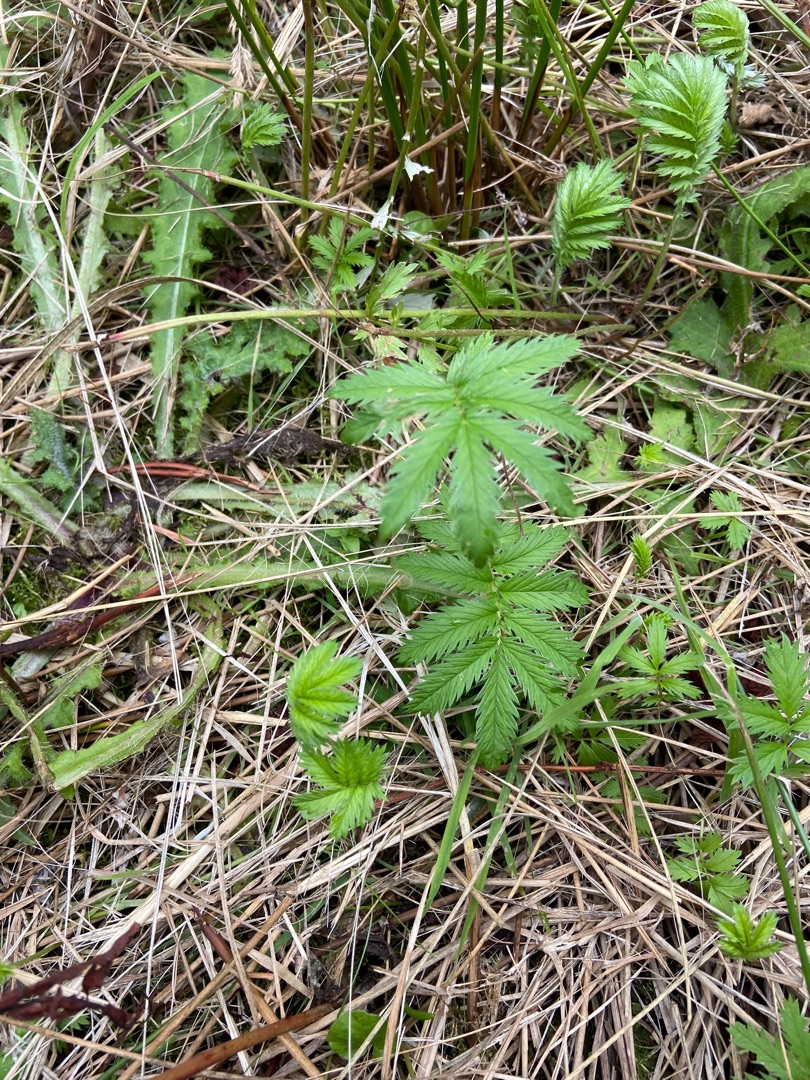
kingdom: Plantae
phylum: Tracheophyta
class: Magnoliopsida
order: Rosales
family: Rosaceae
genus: Argentina
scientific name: Argentina anserina
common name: Gåsepotentil
